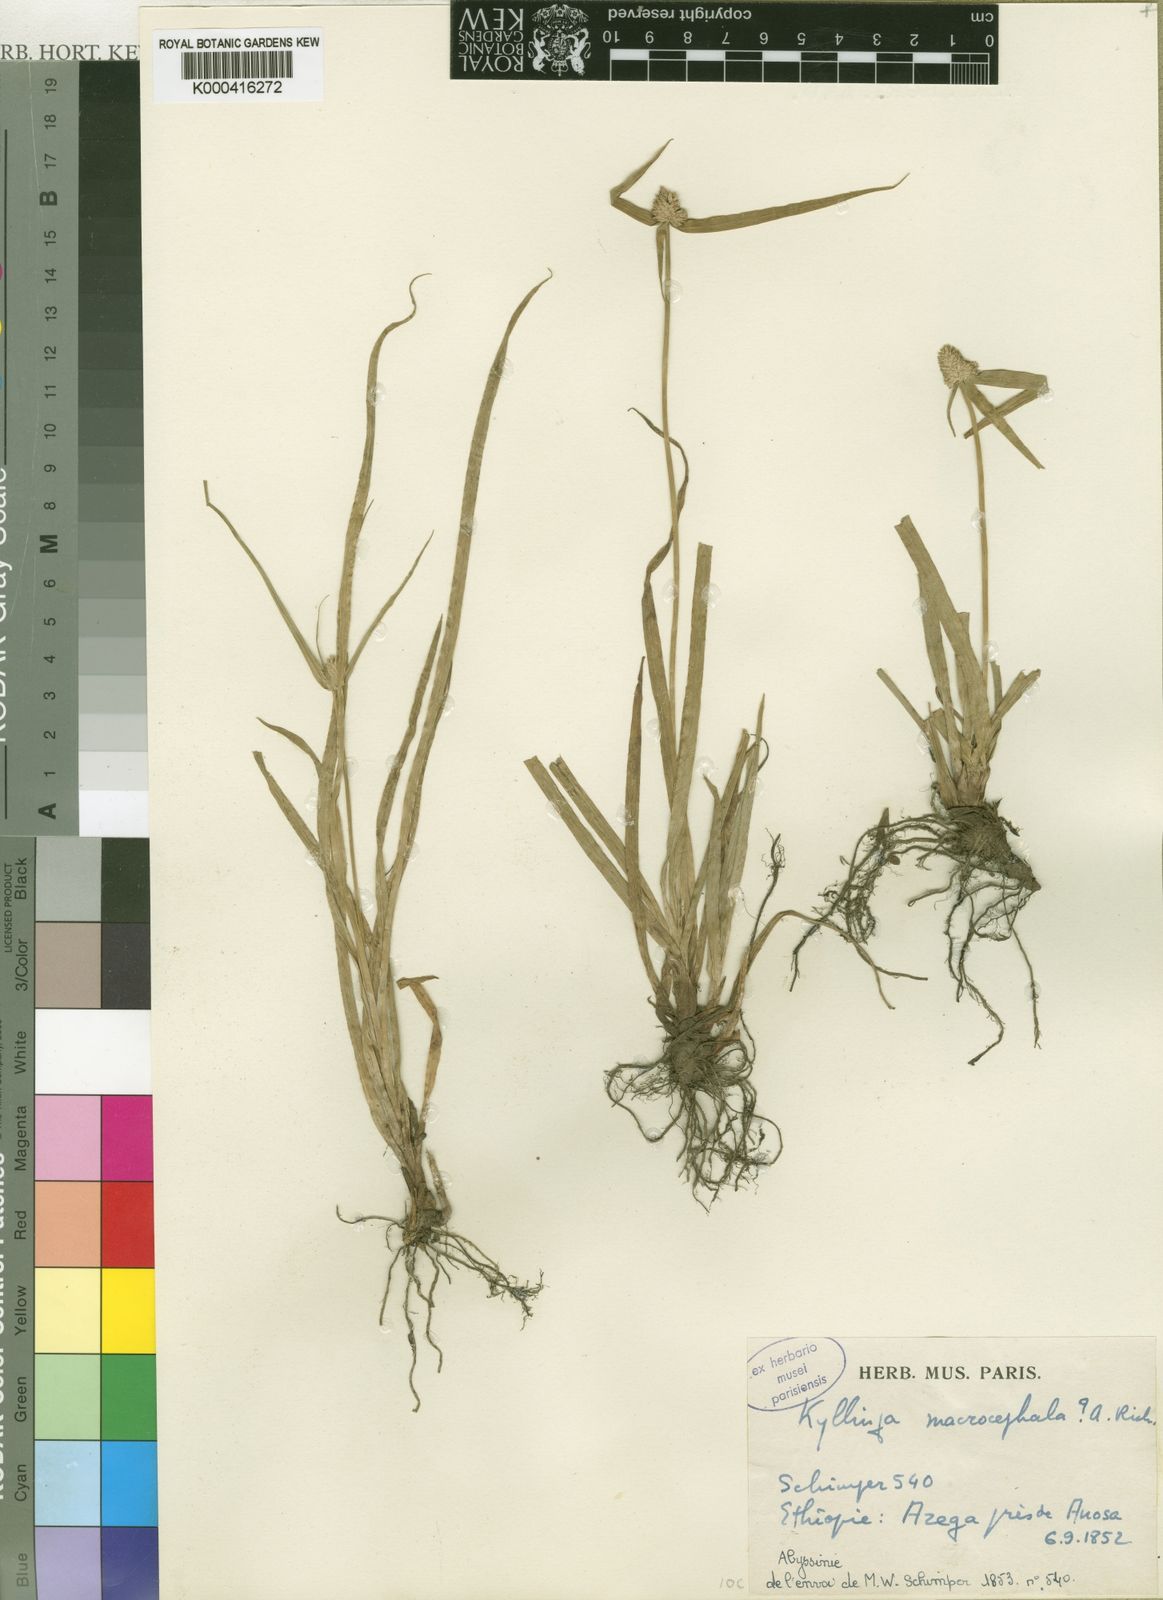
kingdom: Plantae
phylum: Tracheophyta
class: Liliopsida
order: Poales
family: Cyperaceae
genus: Cyperus
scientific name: Cyperus richardii
